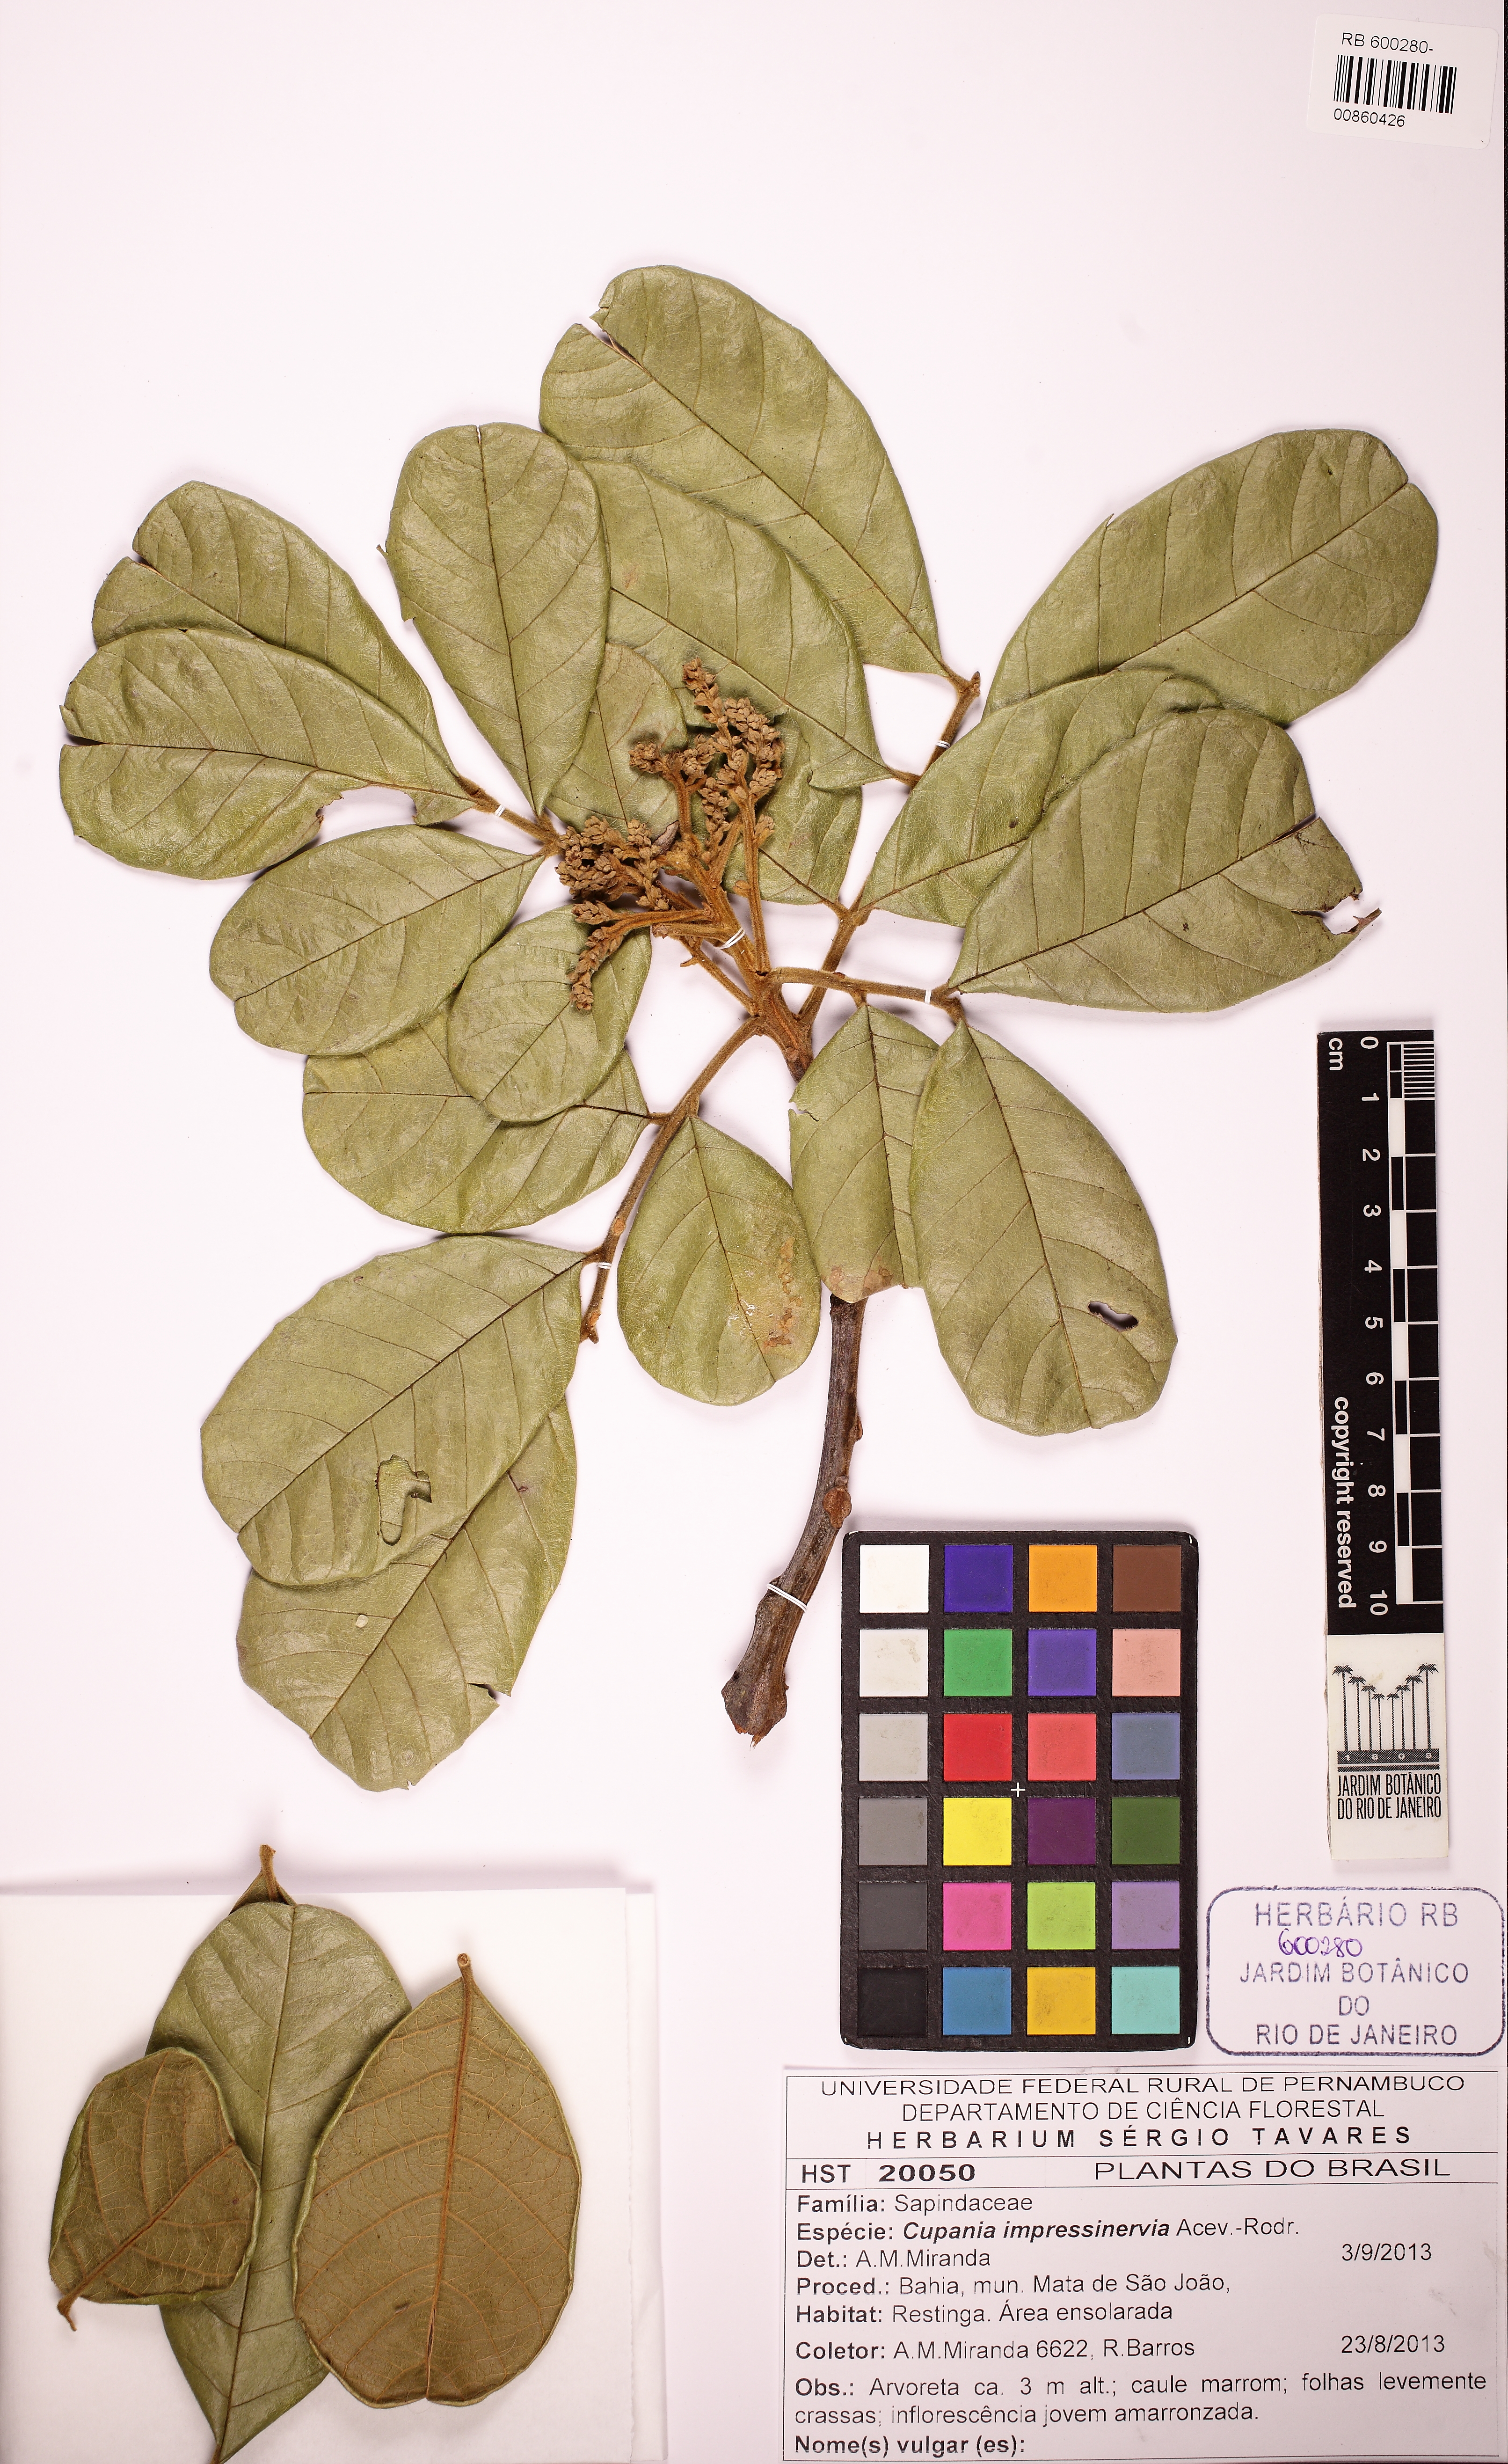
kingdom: Plantae
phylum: Tracheophyta
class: Magnoliopsida
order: Sapindales
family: Sapindaceae
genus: Cupania
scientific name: Cupania impressinervia
